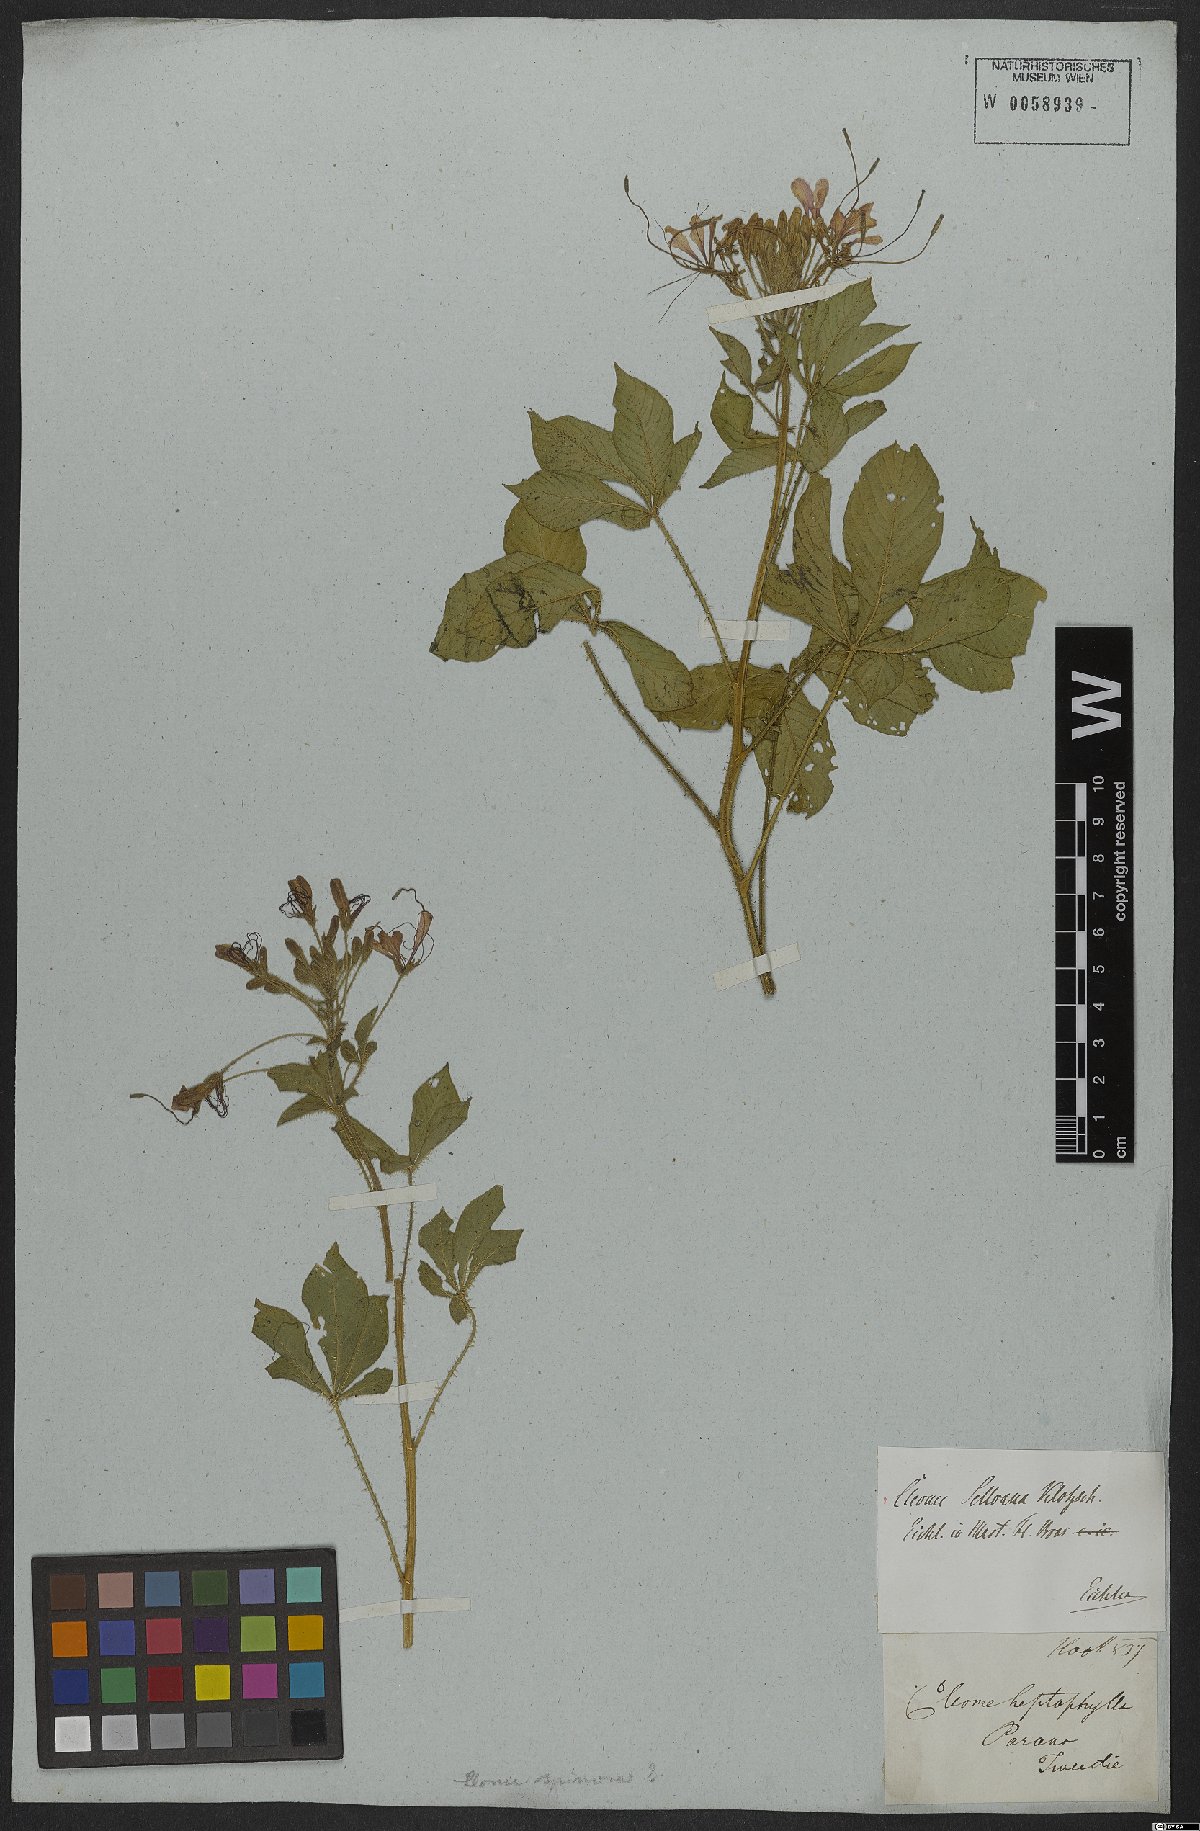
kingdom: Plantae
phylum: Tracheophyta
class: Magnoliopsida
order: Brassicales
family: Cleomaceae
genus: Tarenaya
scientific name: Tarenaya trachycarpa
